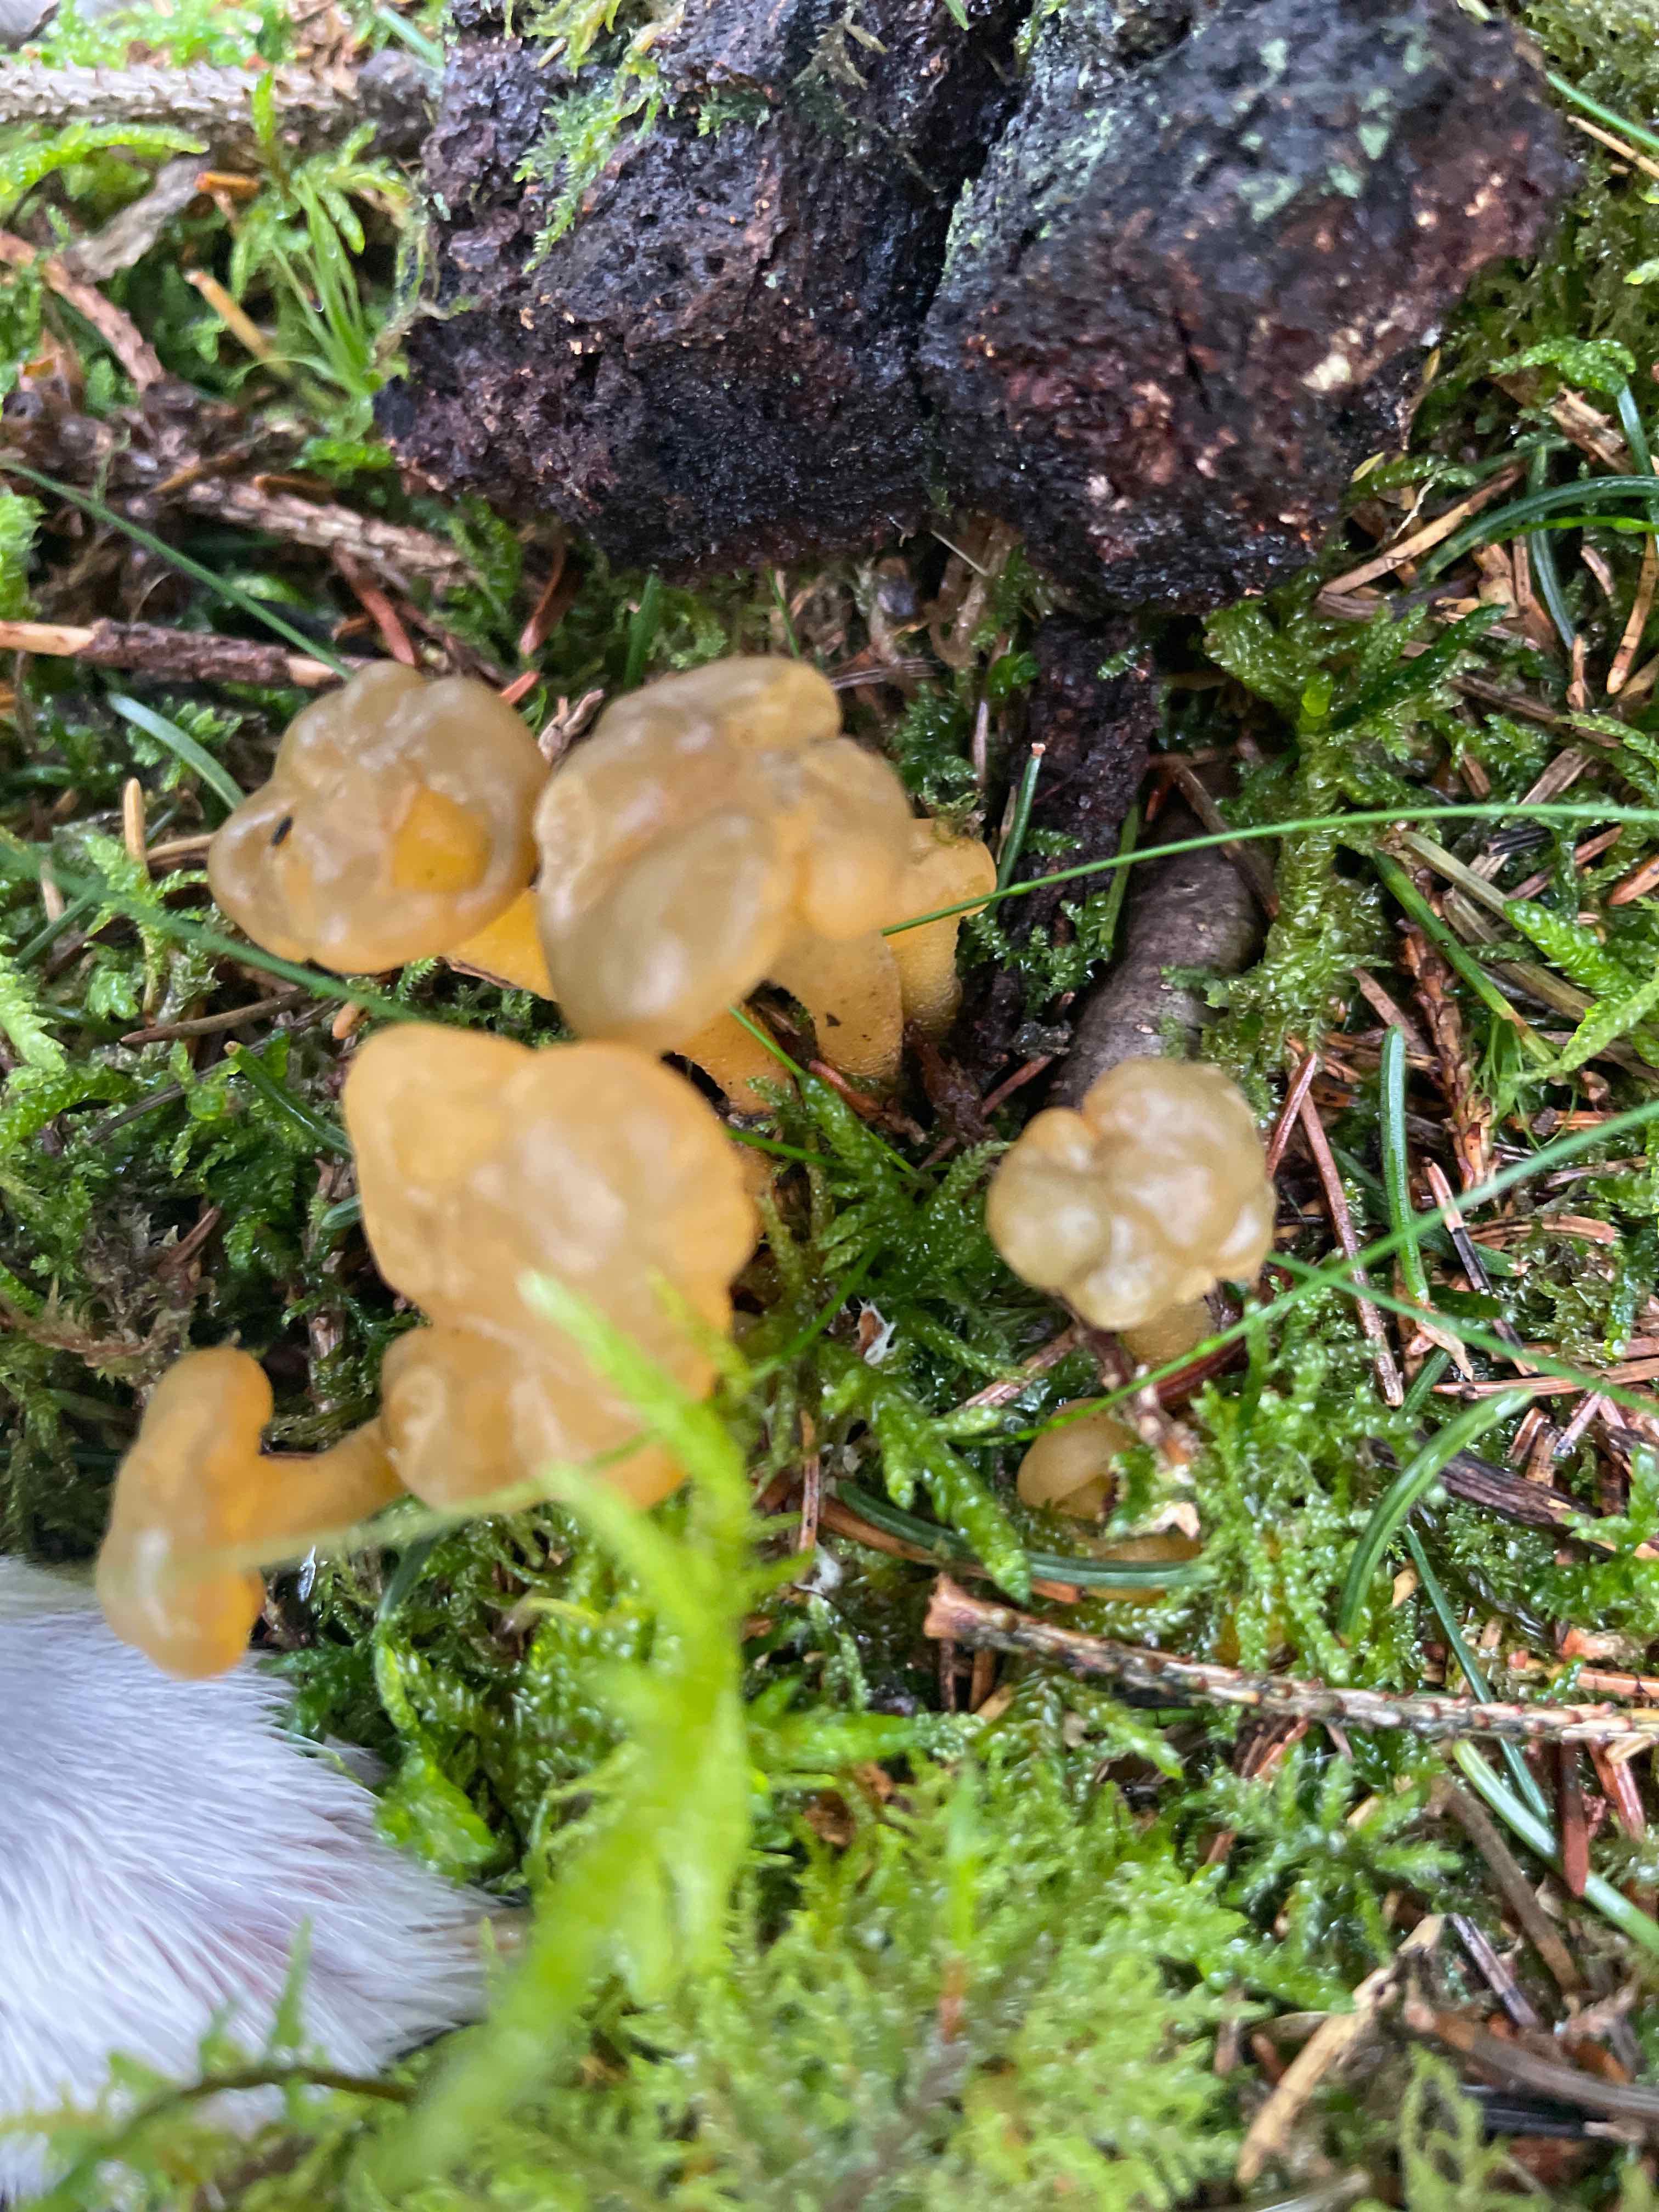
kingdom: Fungi
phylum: Ascomycota
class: Leotiomycetes
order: Leotiales
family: Leotiaceae
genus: Leotia
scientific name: Leotia lubrica
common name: ravsvamp
